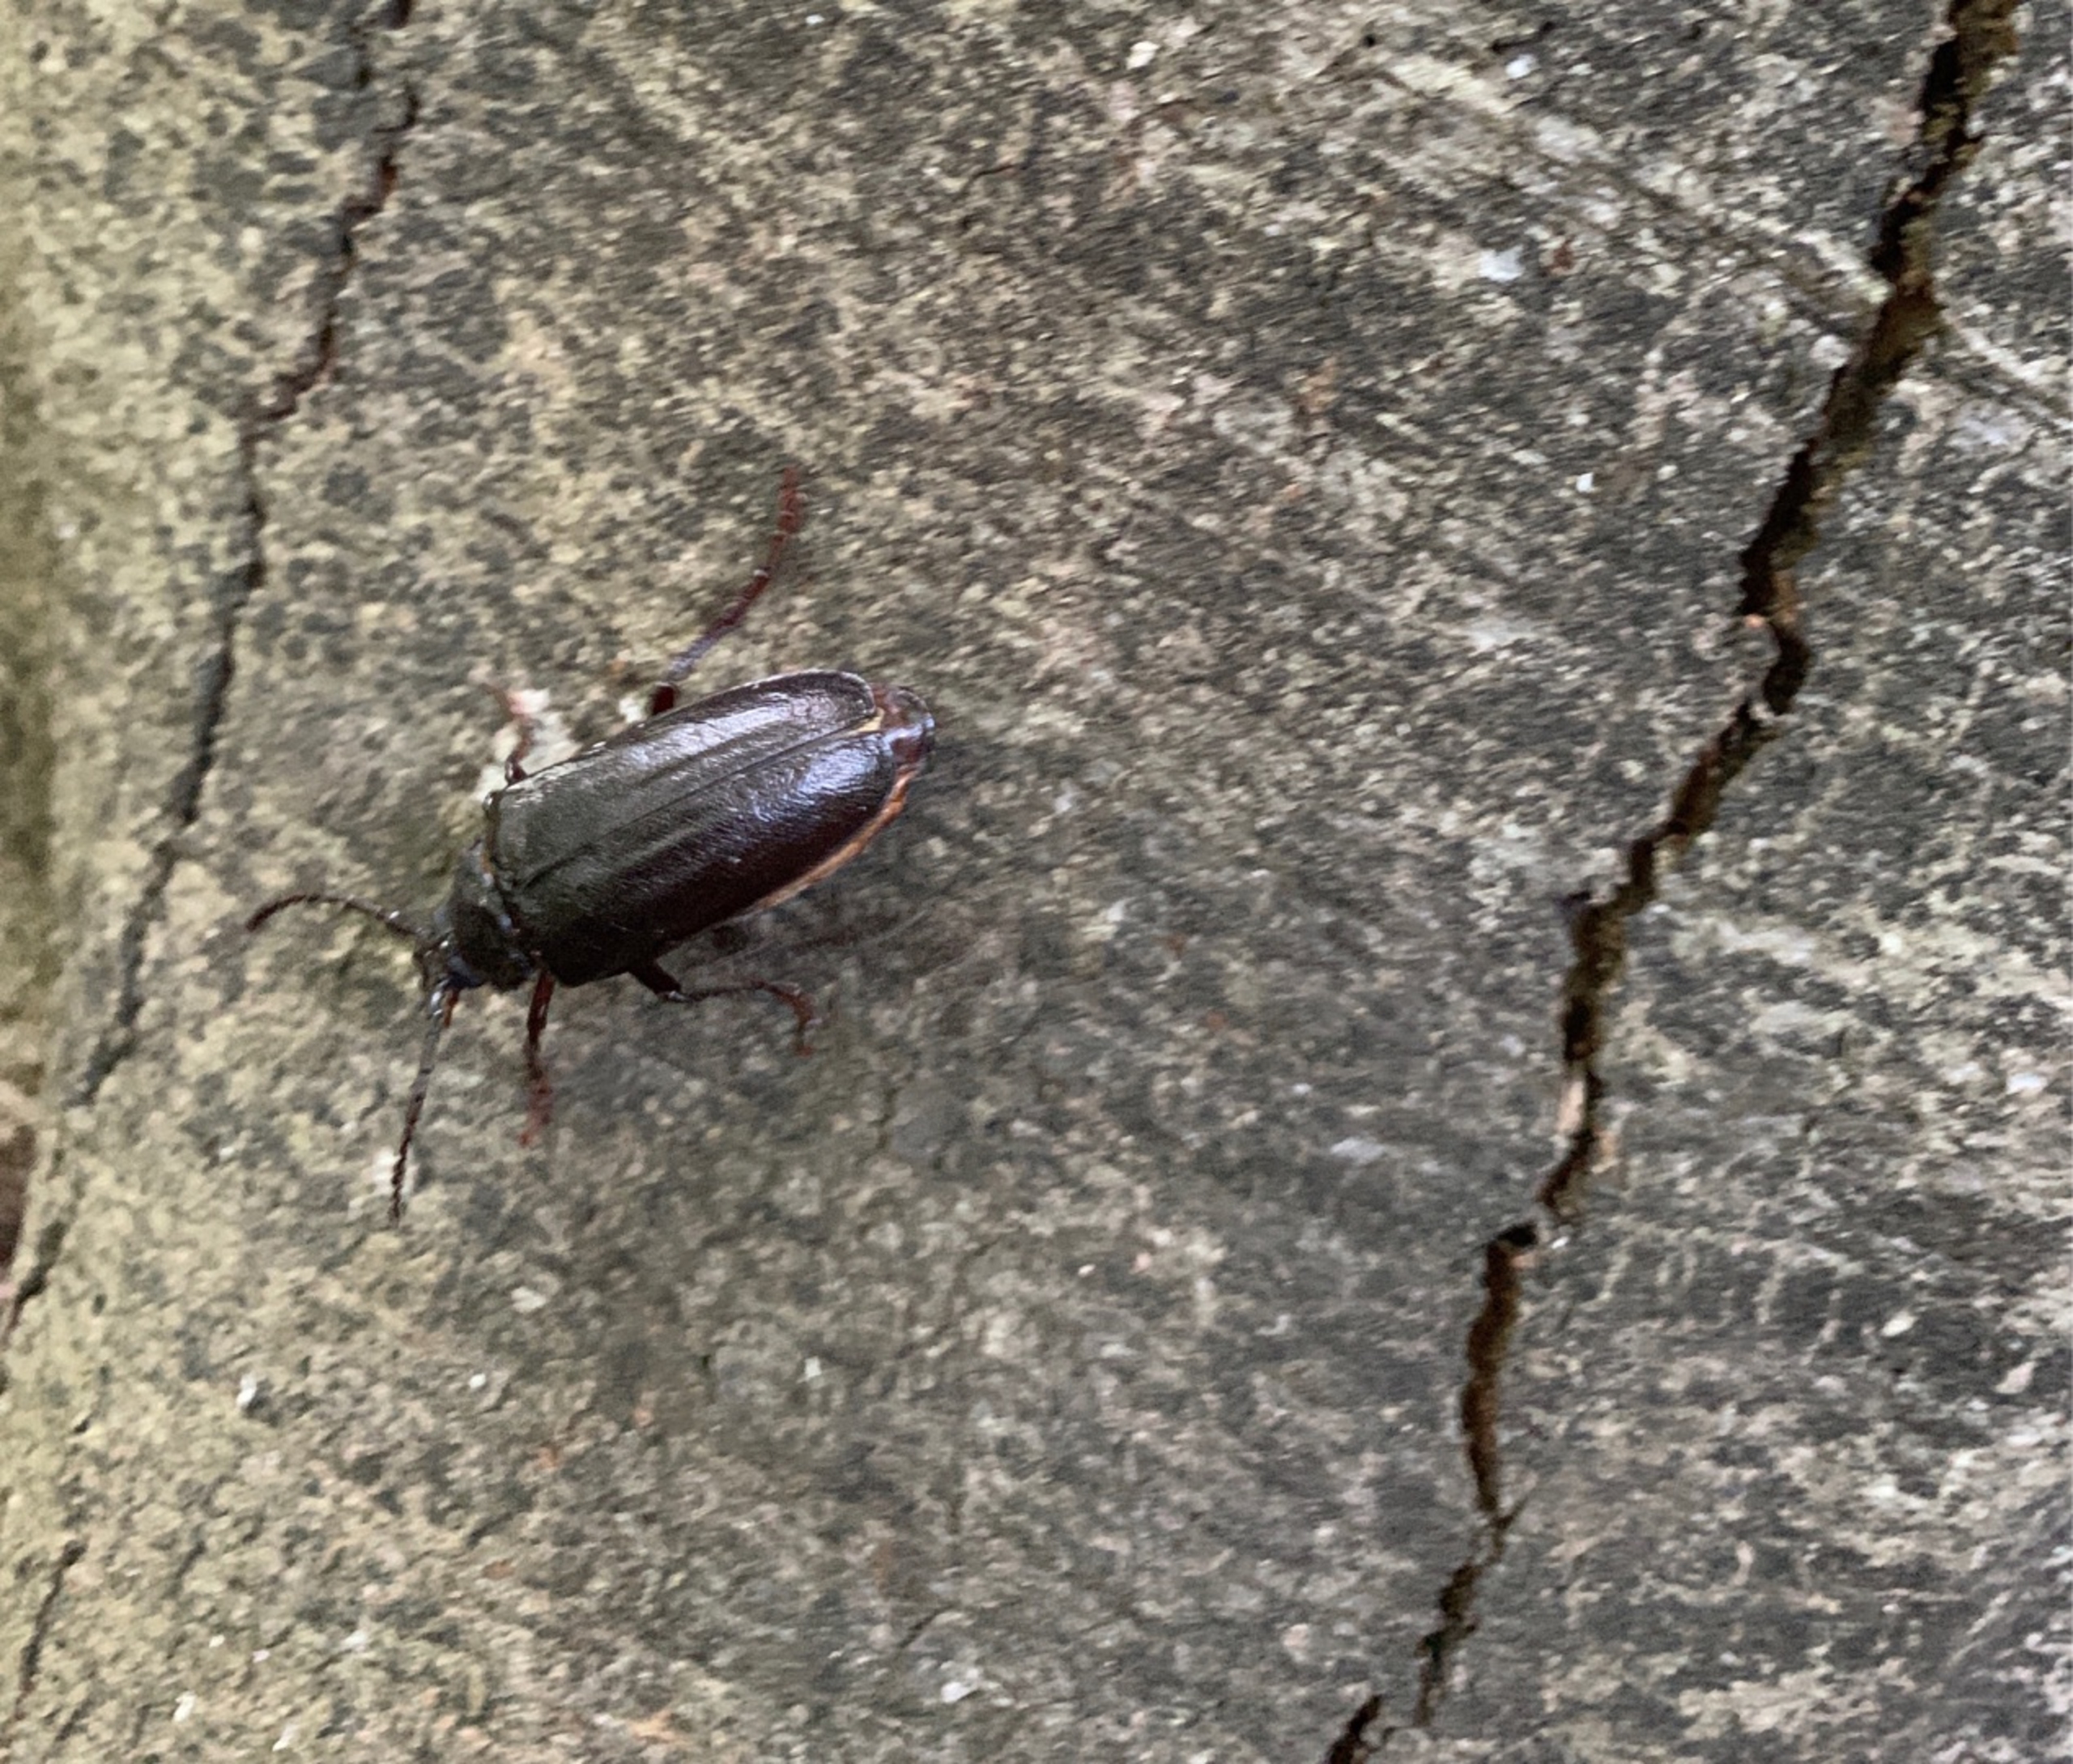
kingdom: Animalia
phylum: Arthropoda
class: Insecta
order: Coleoptera
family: Cerambycidae
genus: Prionus
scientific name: Prionus coriarius
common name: Garver
